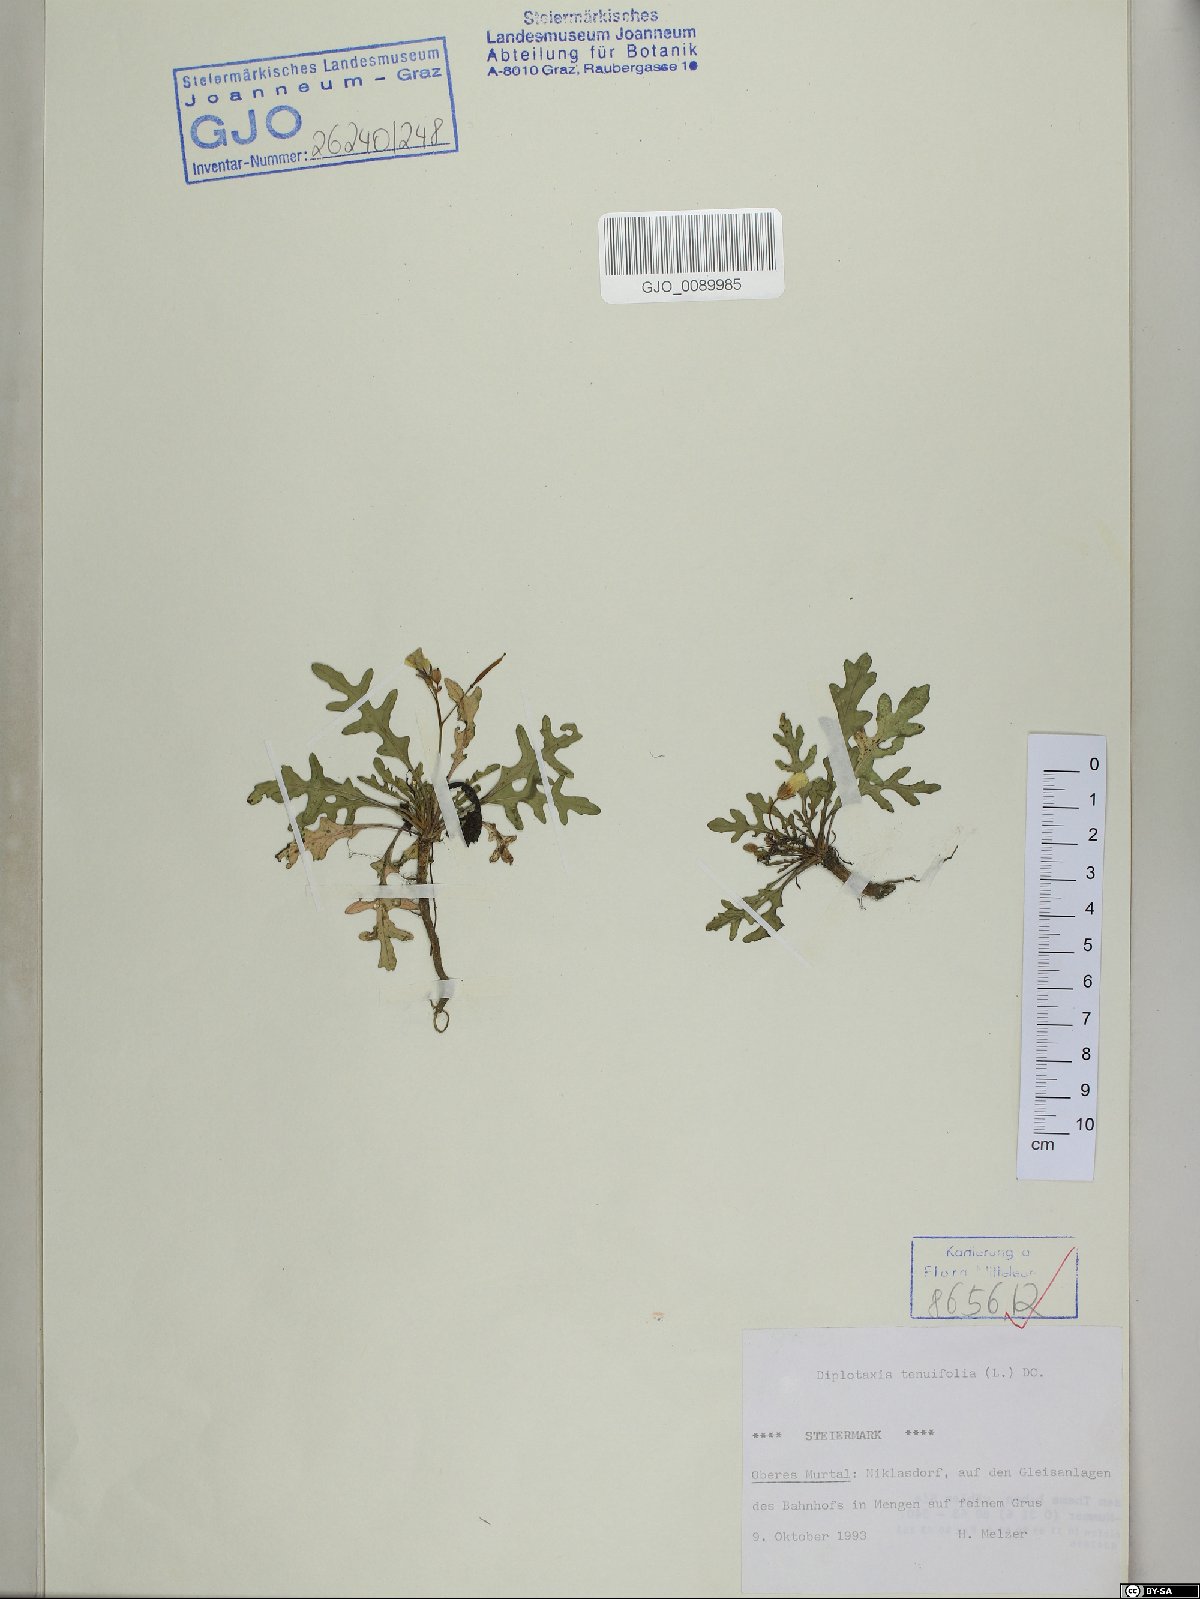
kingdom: Plantae
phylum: Tracheophyta
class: Magnoliopsida
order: Brassicales
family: Brassicaceae
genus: Diplotaxis
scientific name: Diplotaxis tenuifolia
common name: Perennial wall-rocket
